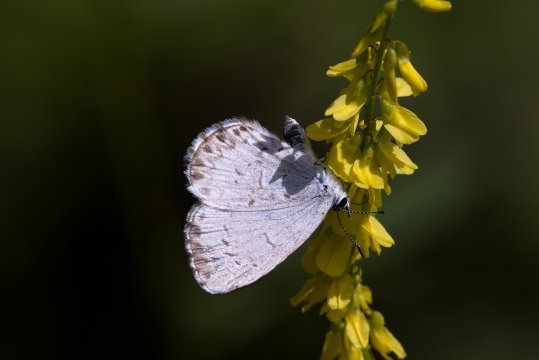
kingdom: Animalia
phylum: Arthropoda
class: Insecta
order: Lepidoptera
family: Lycaenidae
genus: Celastrina
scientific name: Celastrina lucia
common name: Northern Spring Azure
